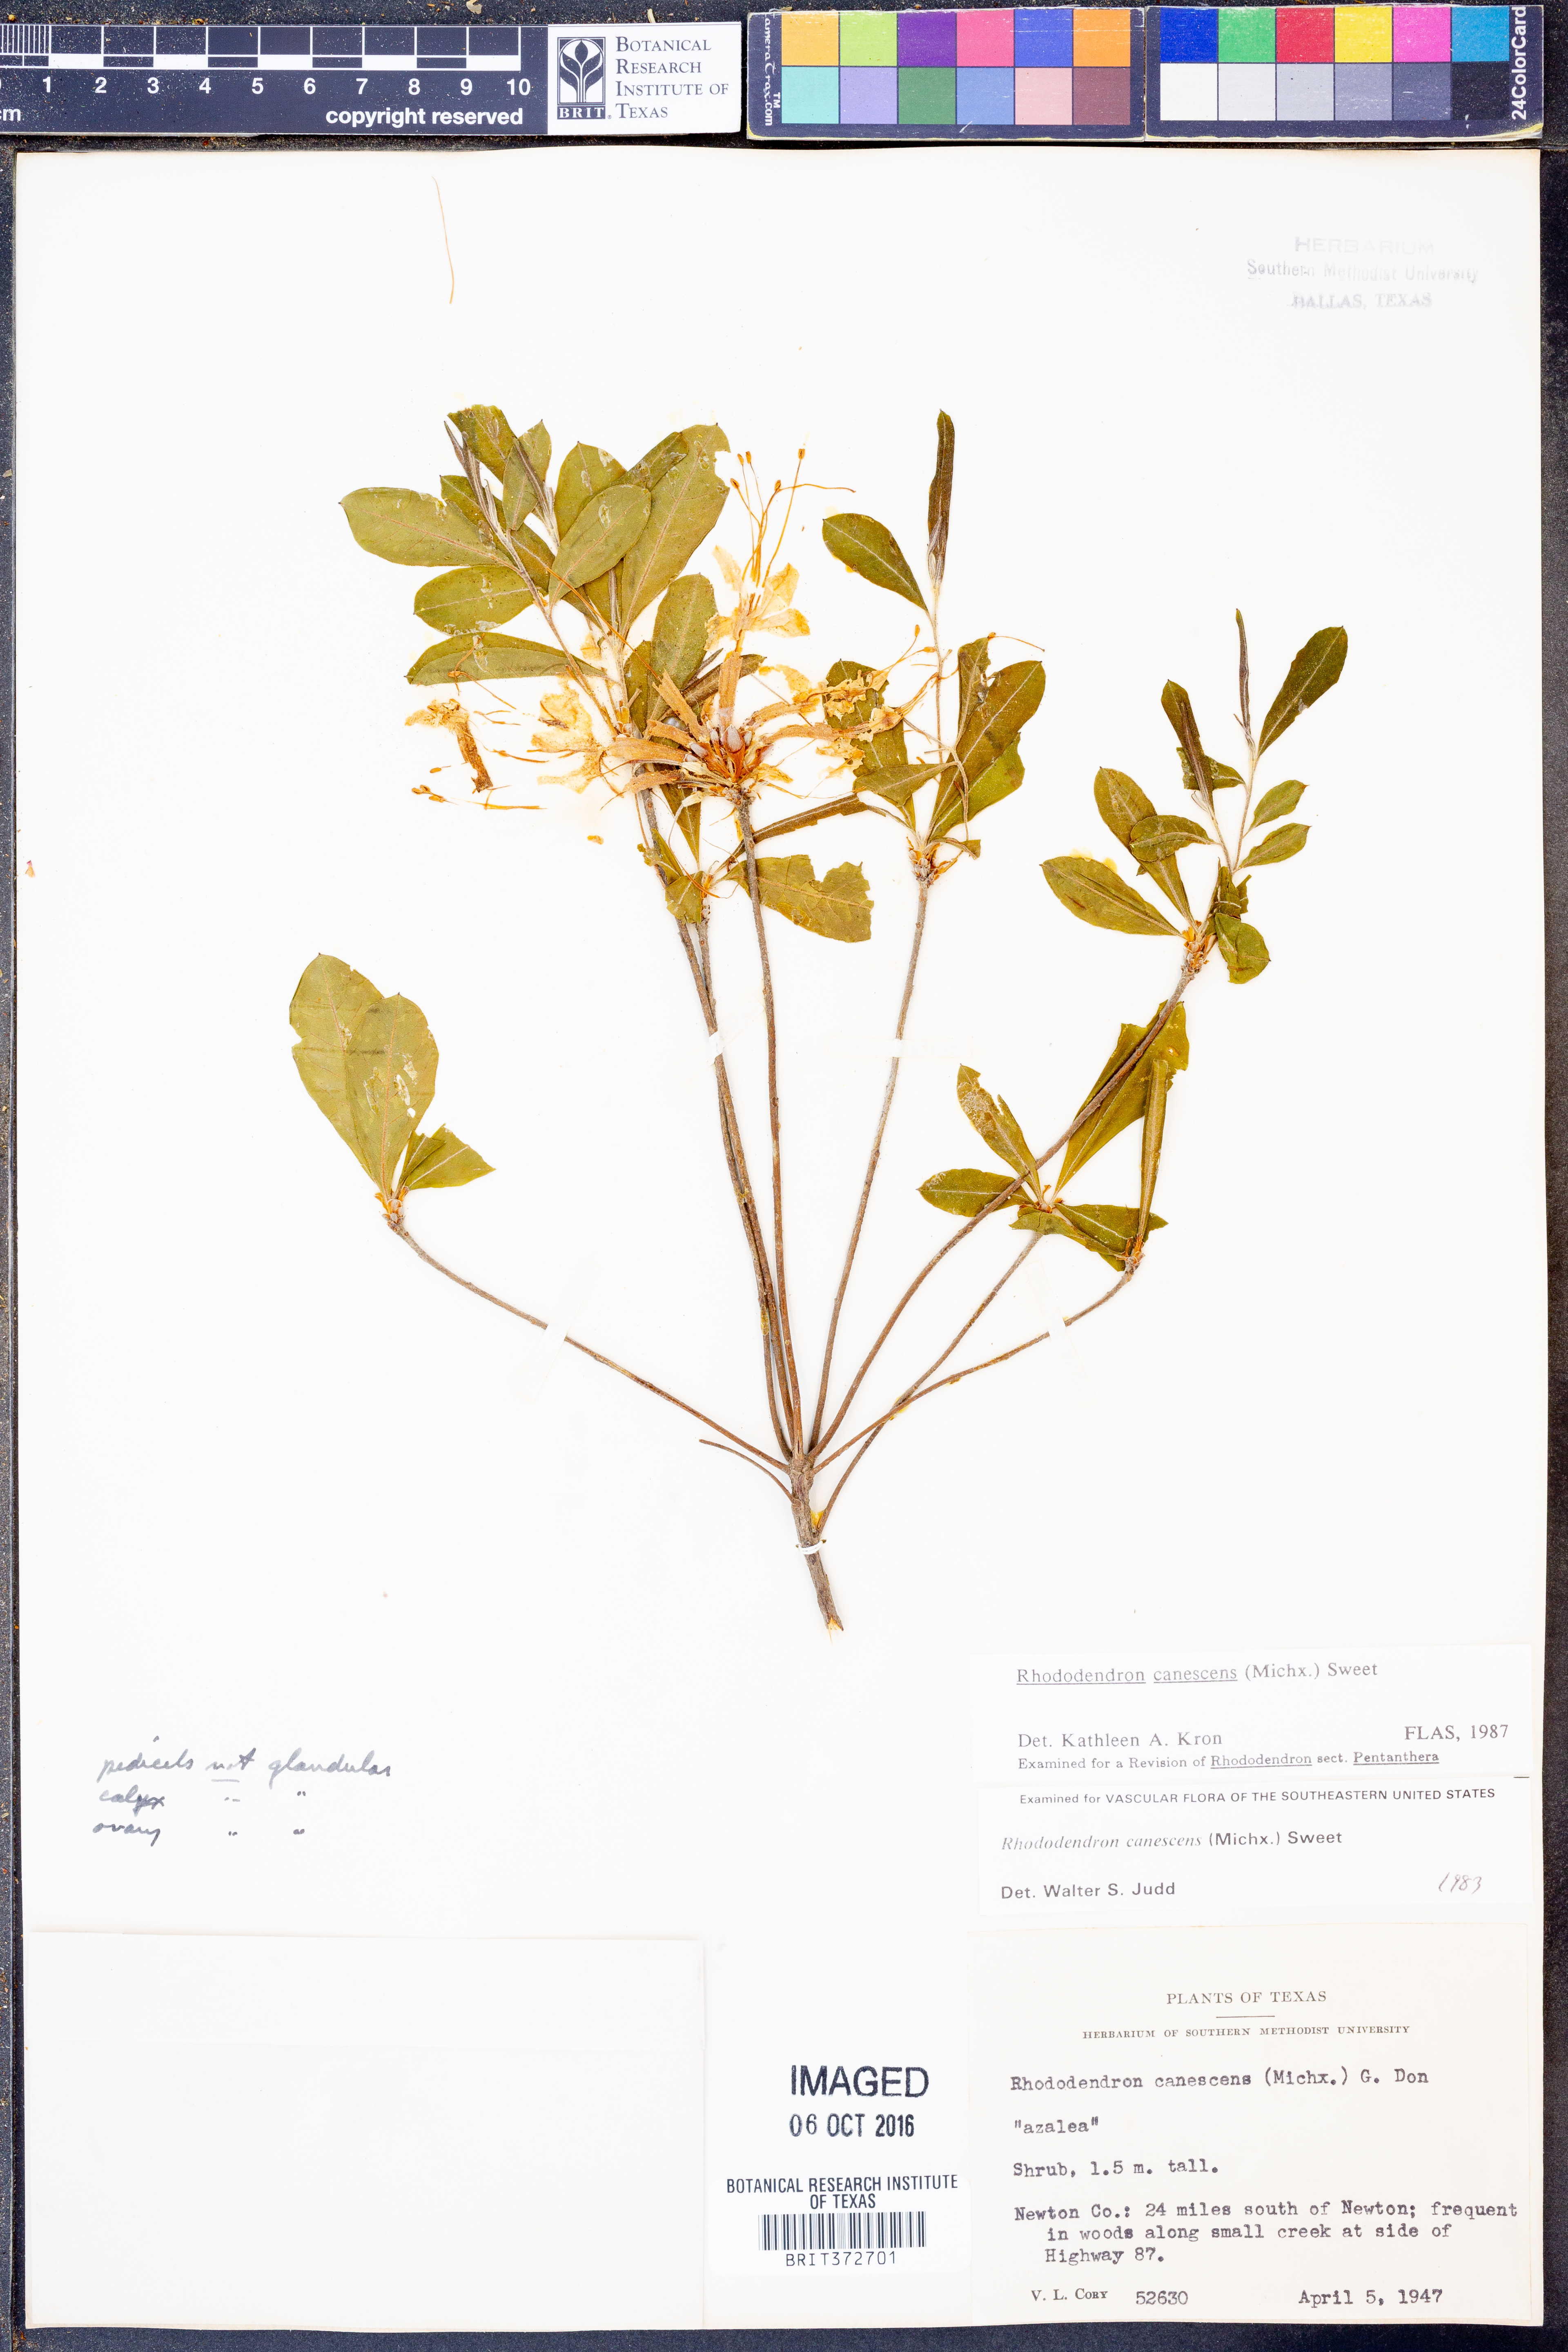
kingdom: Plantae
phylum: Tracheophyta
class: Magnoliopsida
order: Ericales
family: Ericaceae
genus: Rhododendron
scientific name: Rhododendron canescens
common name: Mountain azalea
